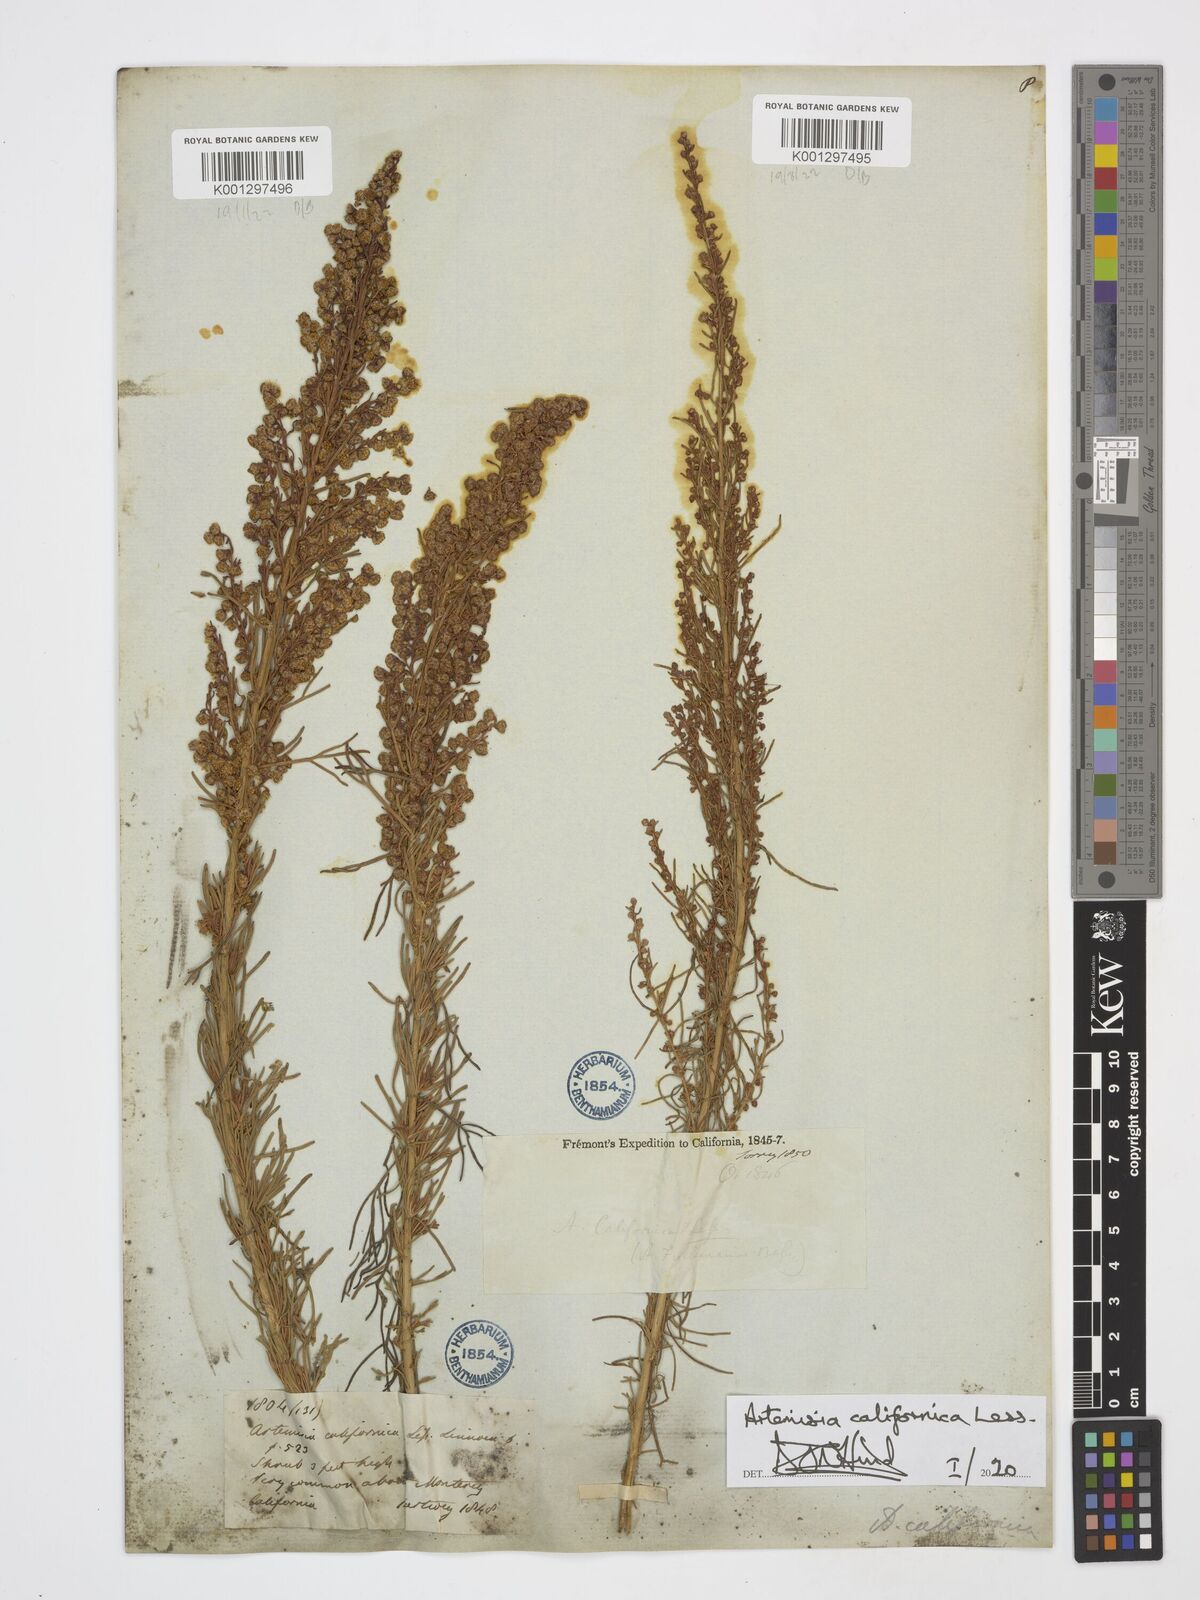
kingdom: Plantae
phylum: Tracheophyta
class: Magnoliopsida
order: Asterales
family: Asteraceae
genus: Artemisia
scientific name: Artemisia californica
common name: California sagebrush
